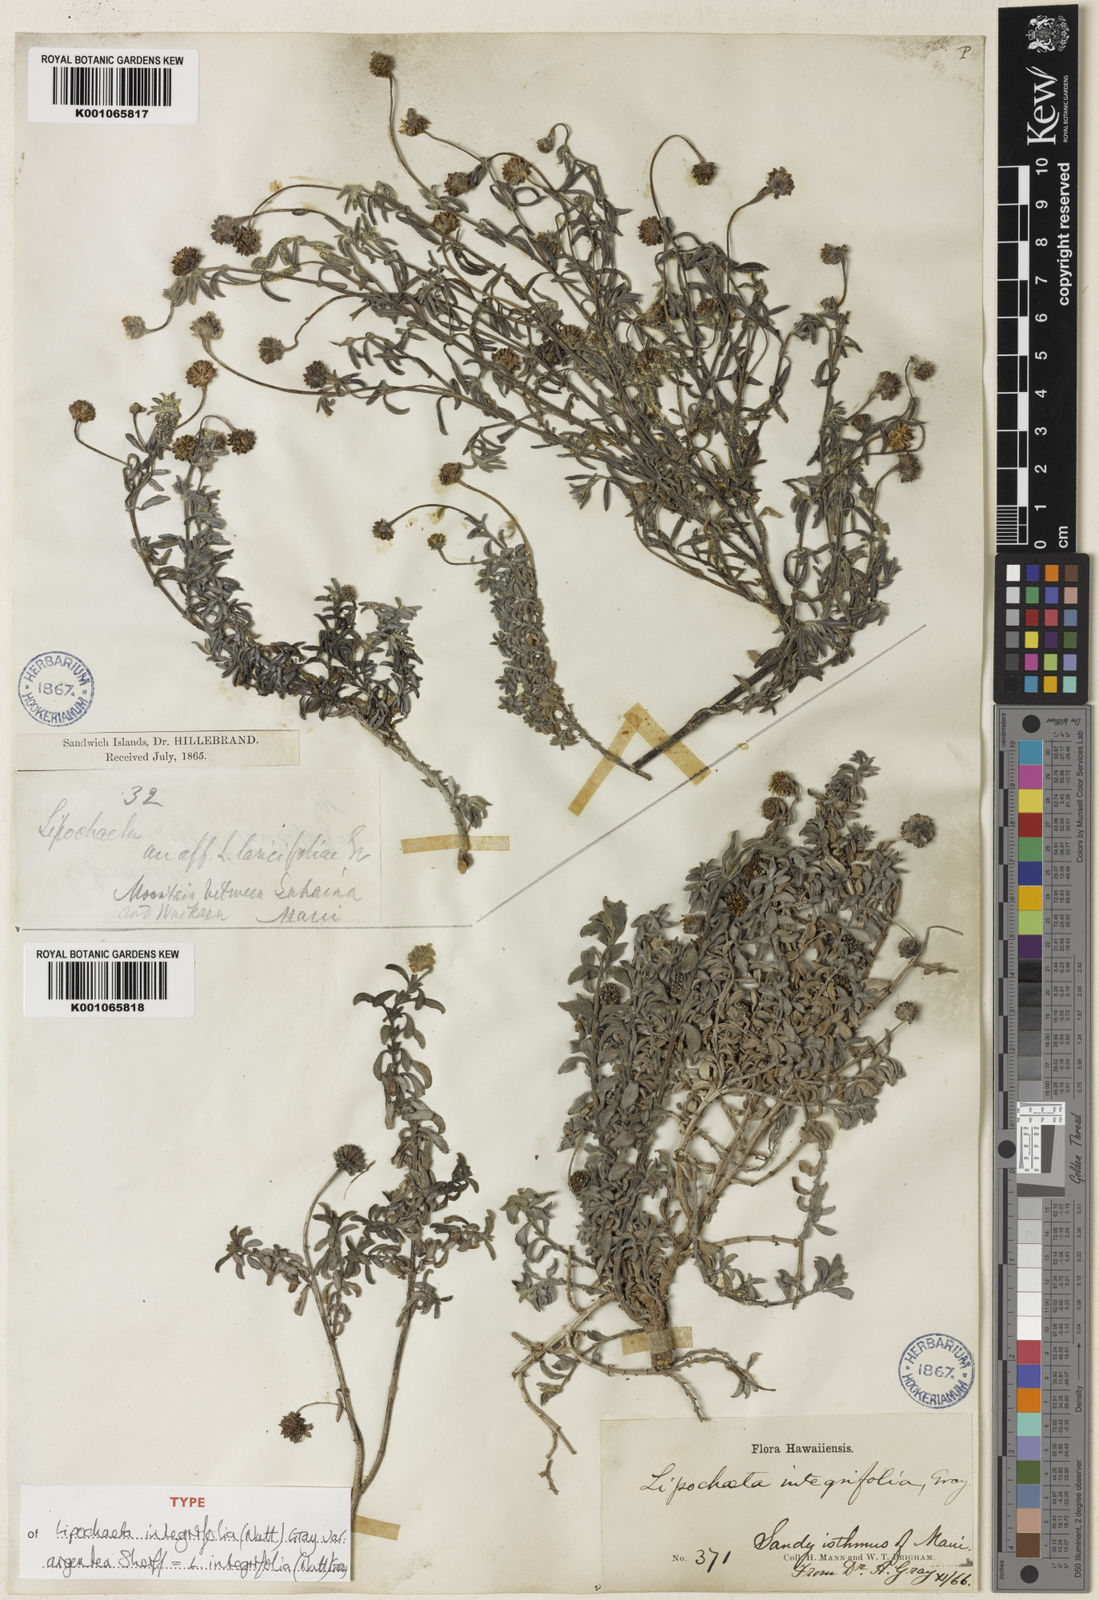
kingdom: Plantae
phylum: Tracheophyta
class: Magnoliopsida
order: Asterales
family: Asteraceae
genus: Lipochaeta
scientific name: Lipochaeta integrifolia
